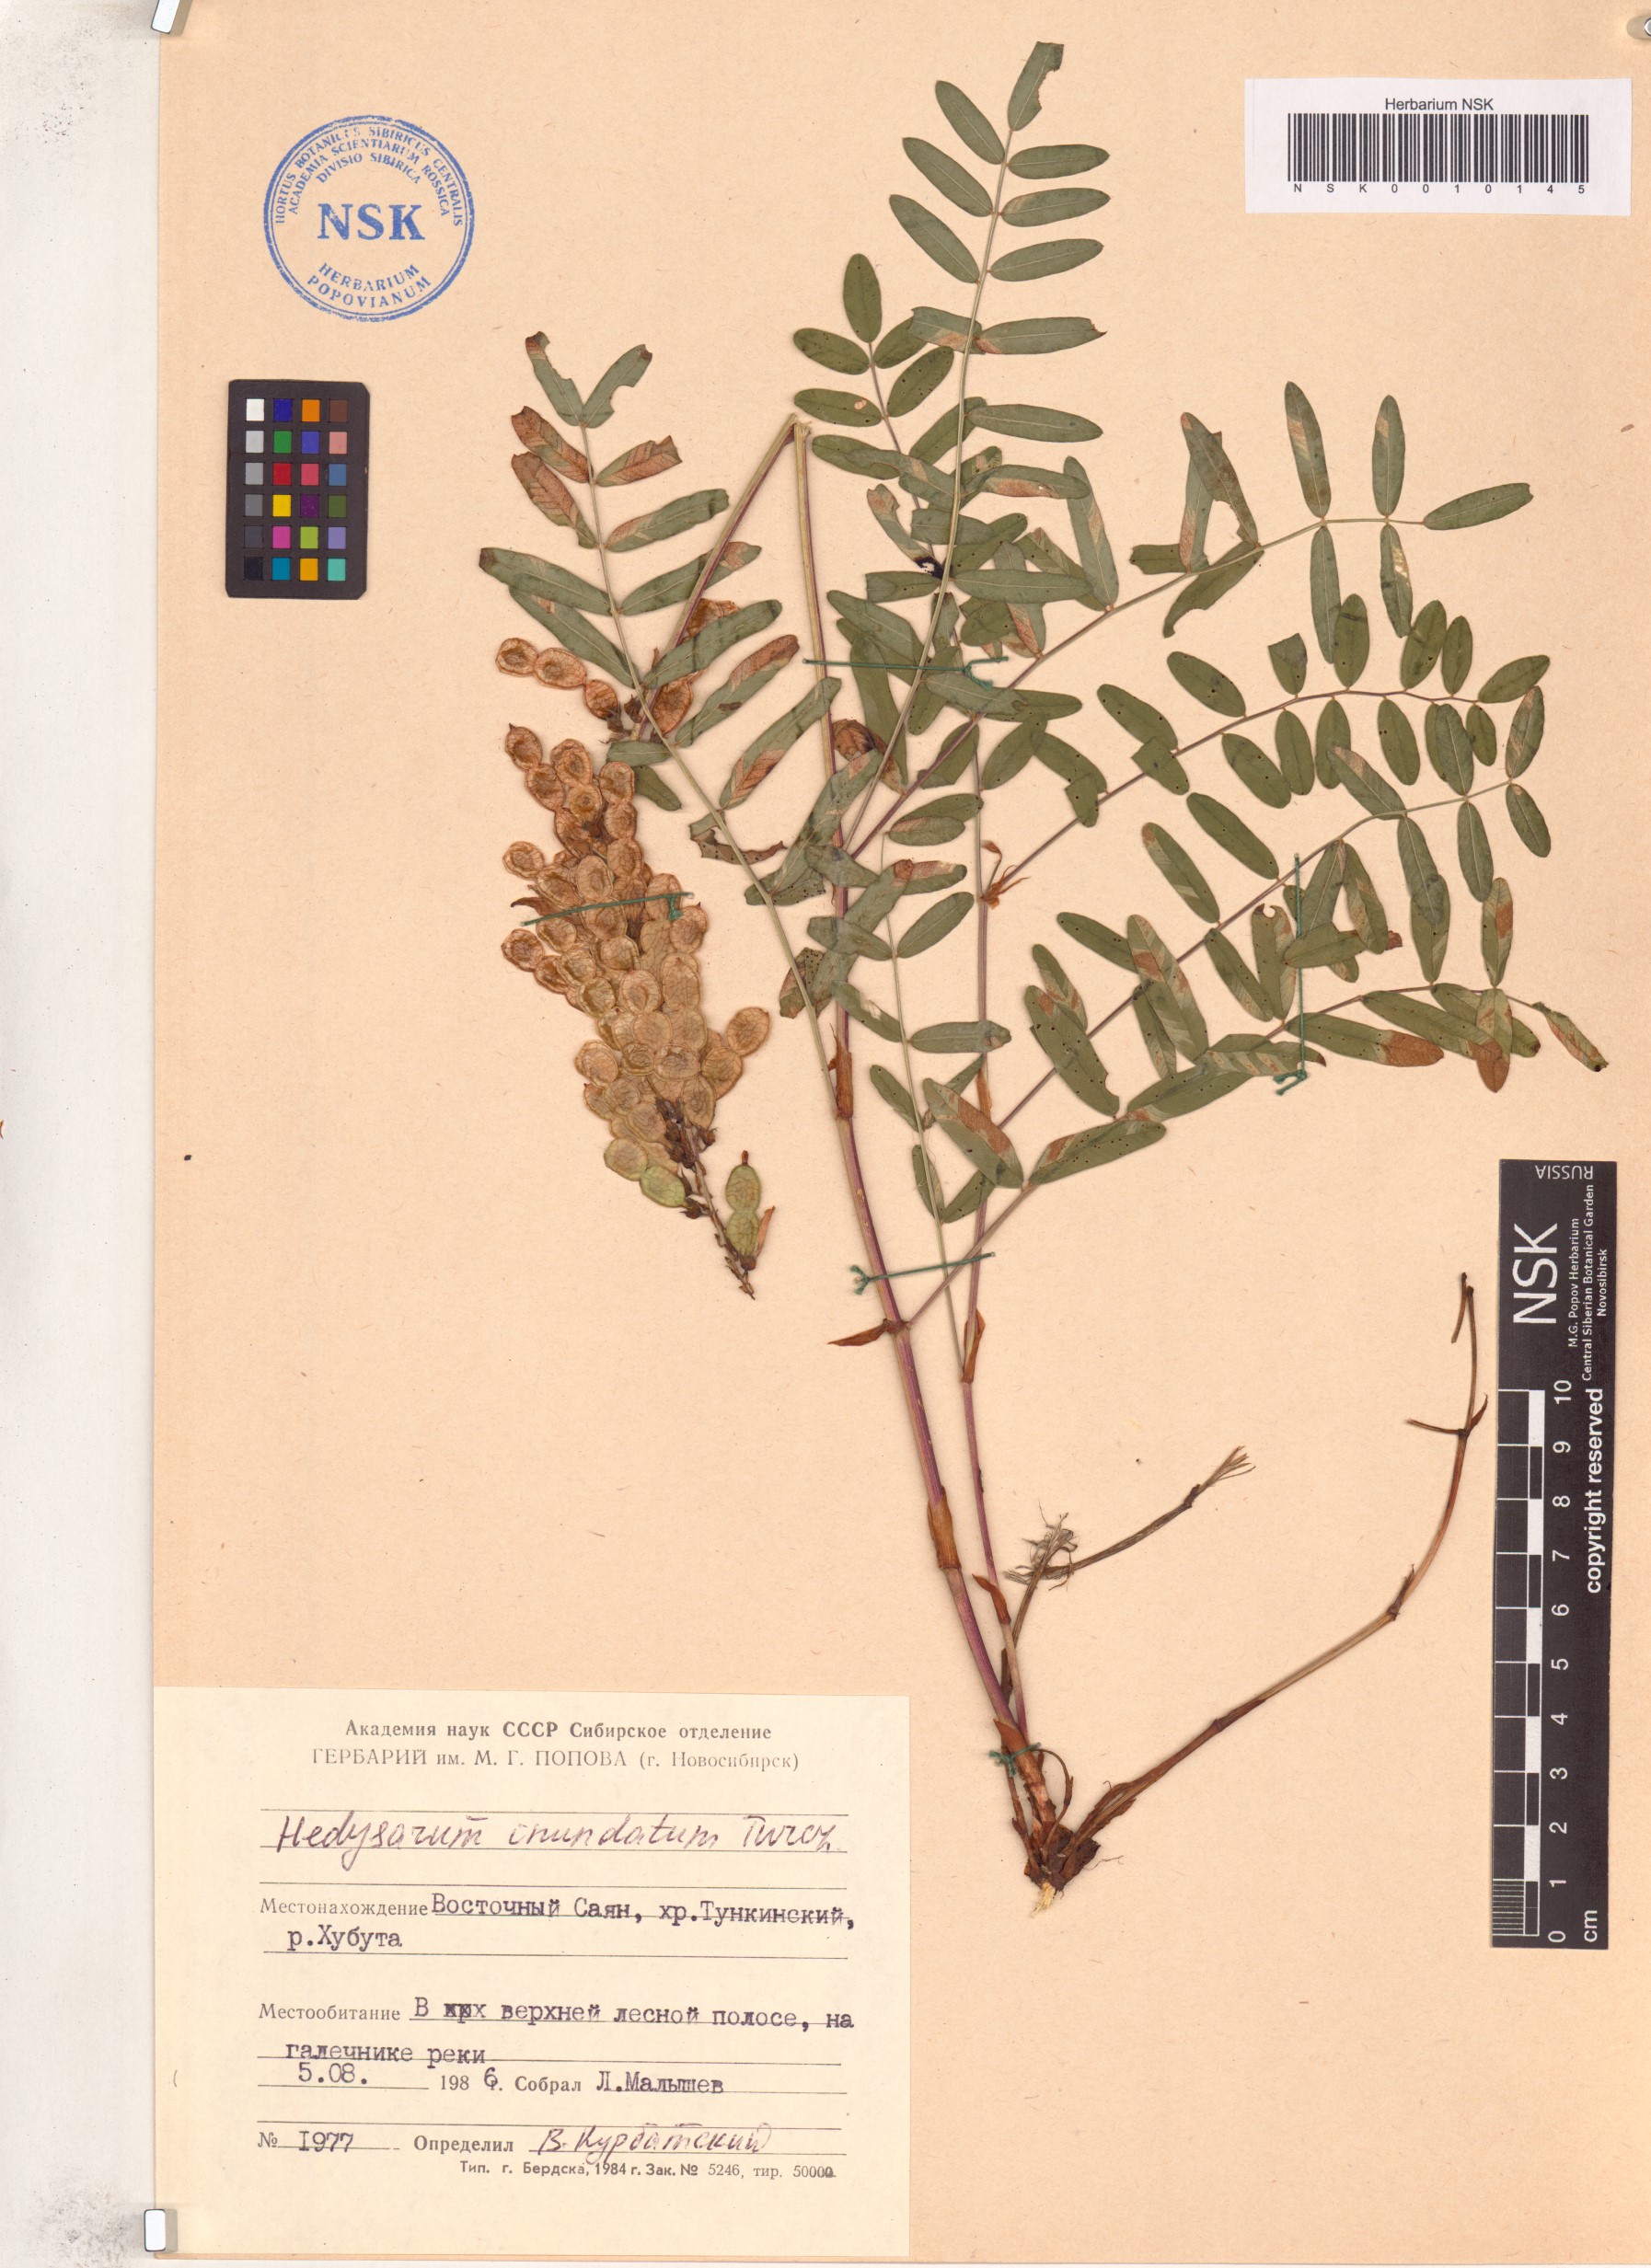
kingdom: Plantae
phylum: Tracheophyta
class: Magnoliopsida
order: Fabales
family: Fabaceae
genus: Hedysarum
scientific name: Hedysarum inundatum
